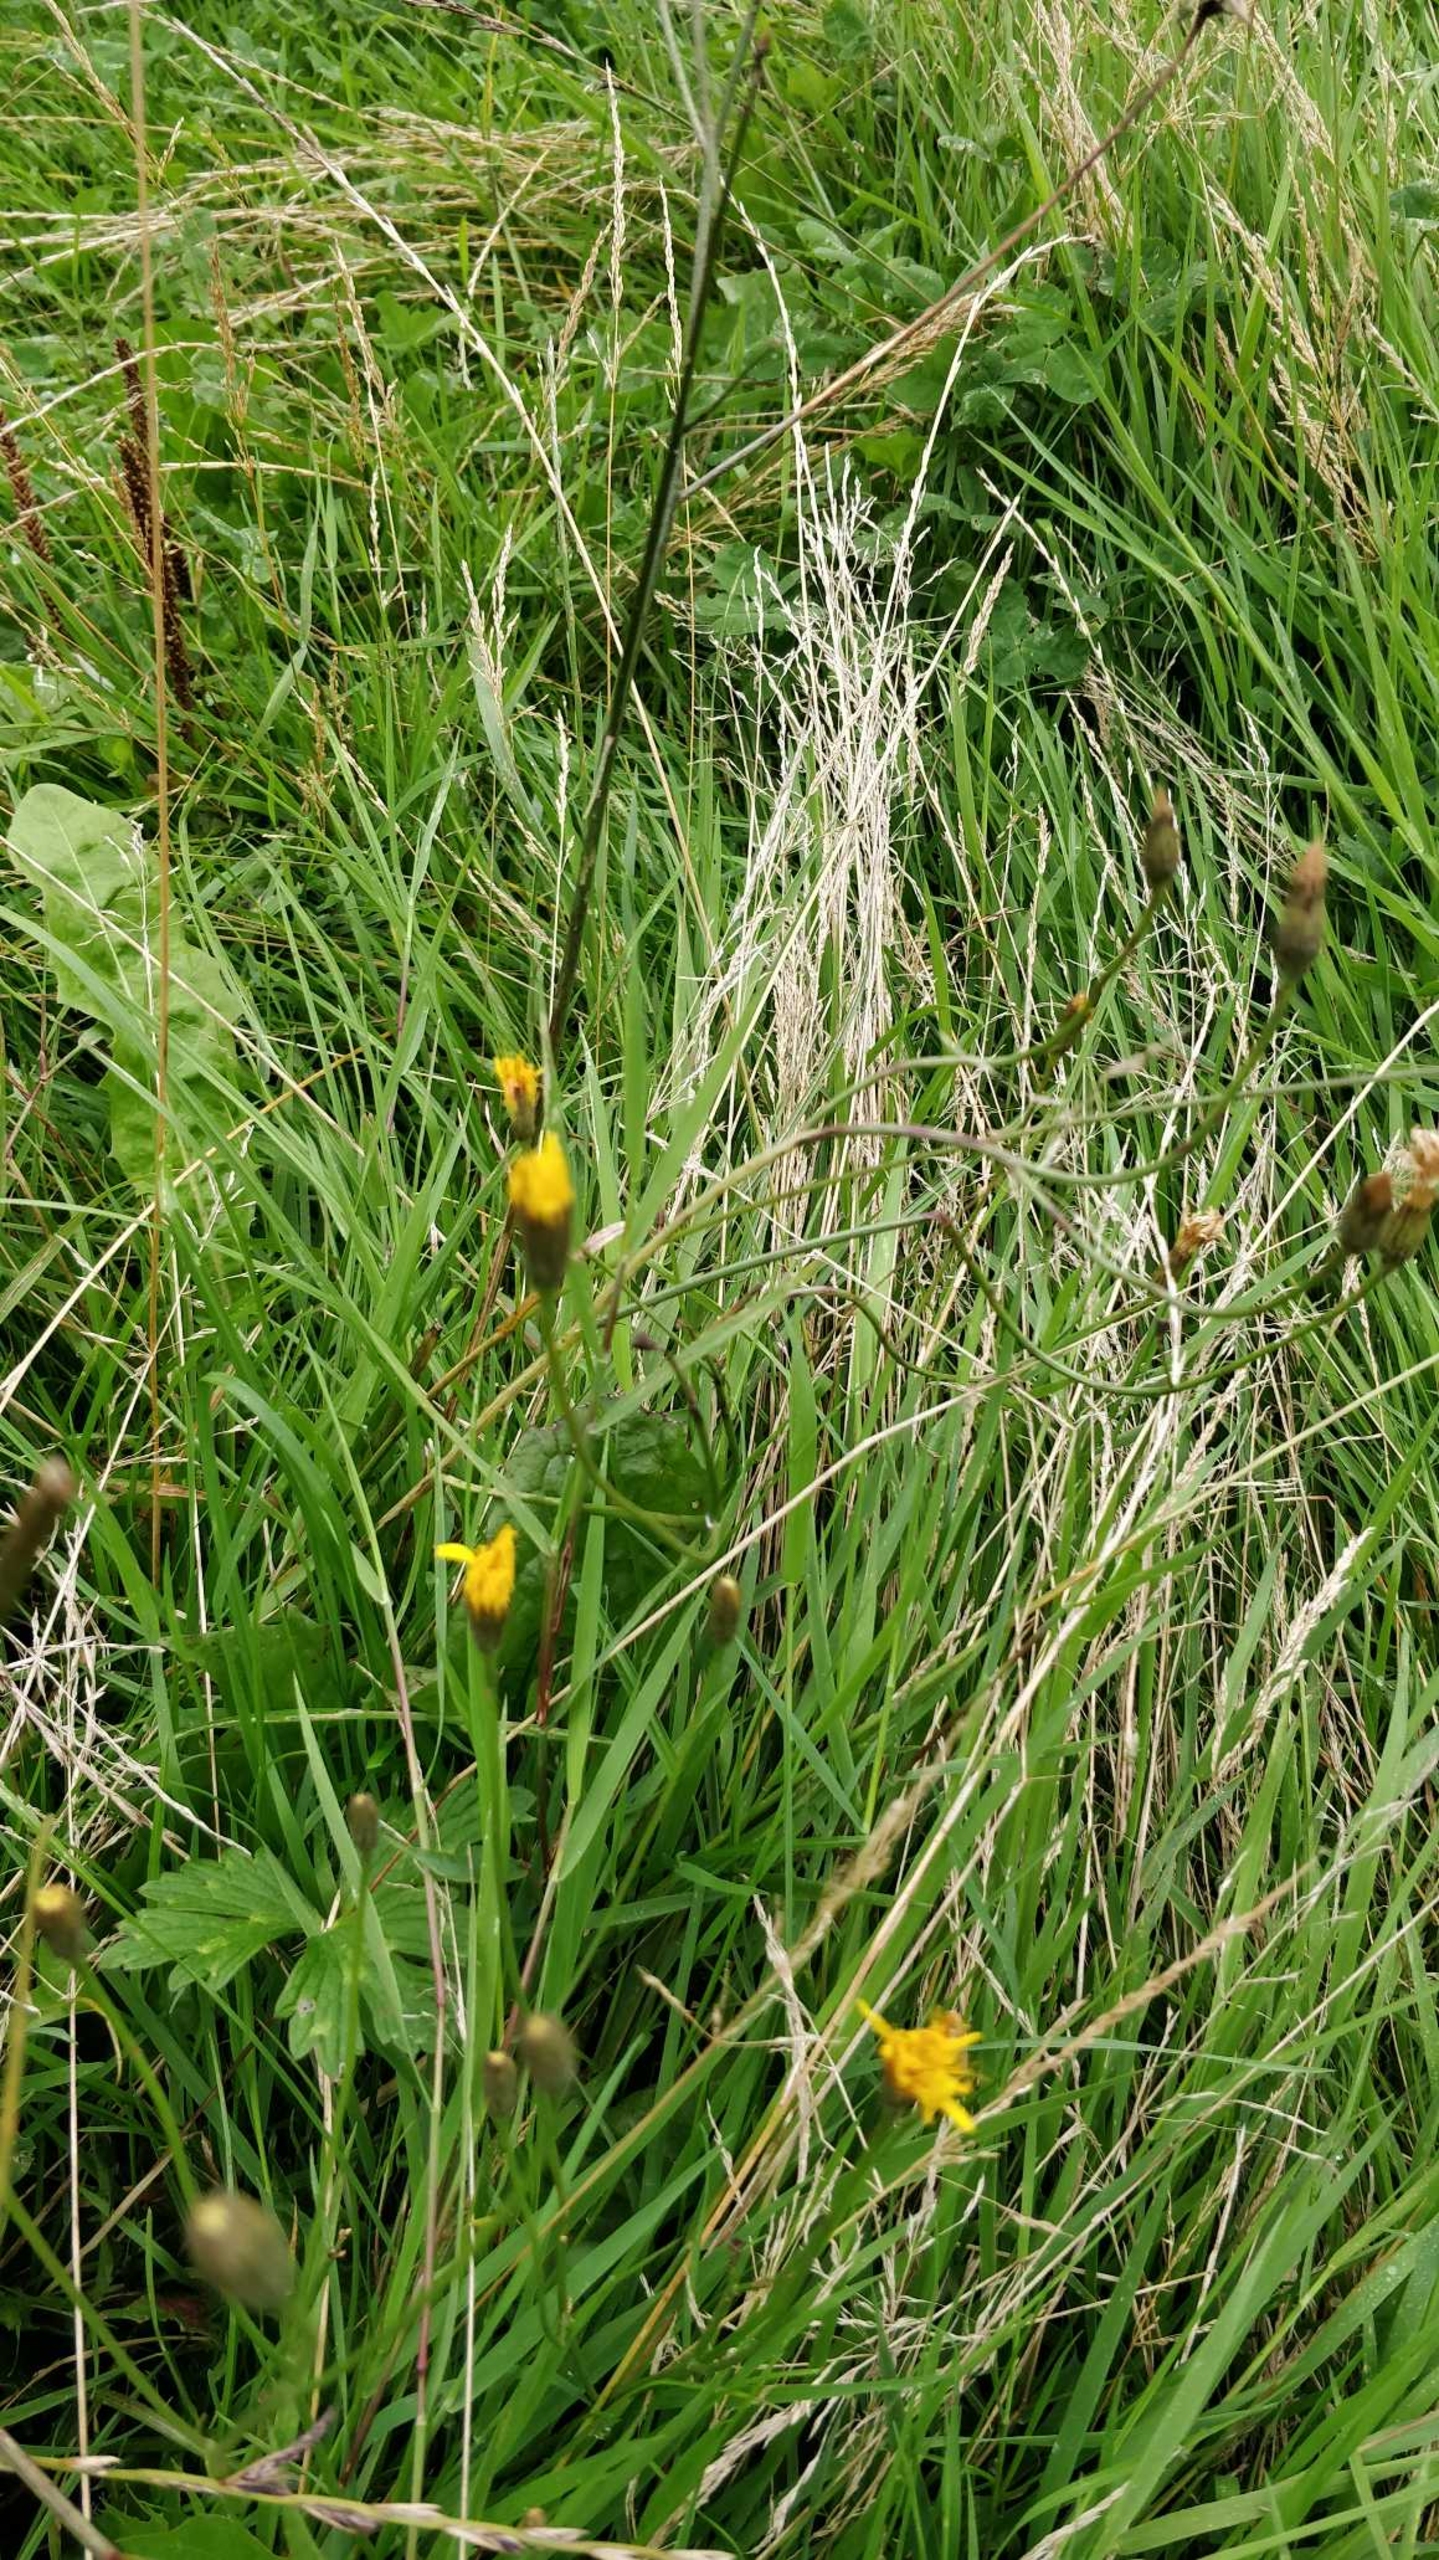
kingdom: Plantae
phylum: Tracheophyta
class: Magnoliopsida
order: Asterales
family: Asteraceae
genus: Scorzoneroides
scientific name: Scorzoneroides autumnalis
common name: Høst-borst
